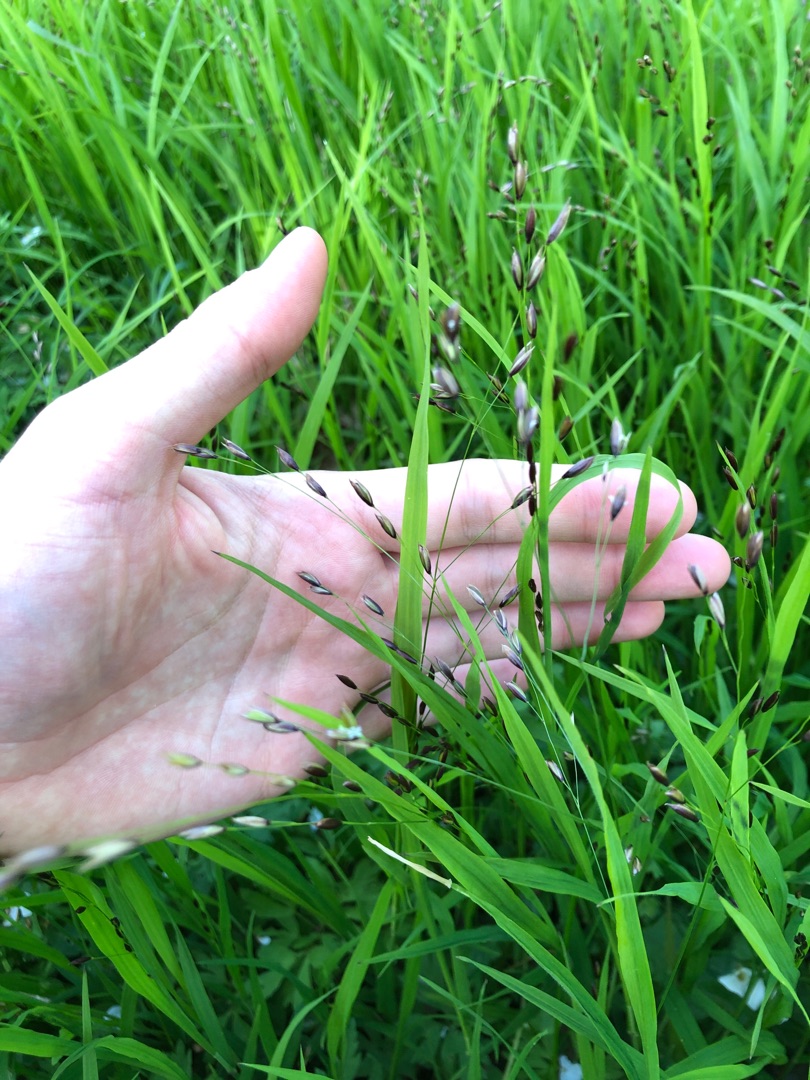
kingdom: Plantae
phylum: Tracheophyta
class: Liliopsida
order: Poales
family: Poaceae
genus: Melica
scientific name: Melica uniflora
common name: Enblomstret flitteraks
